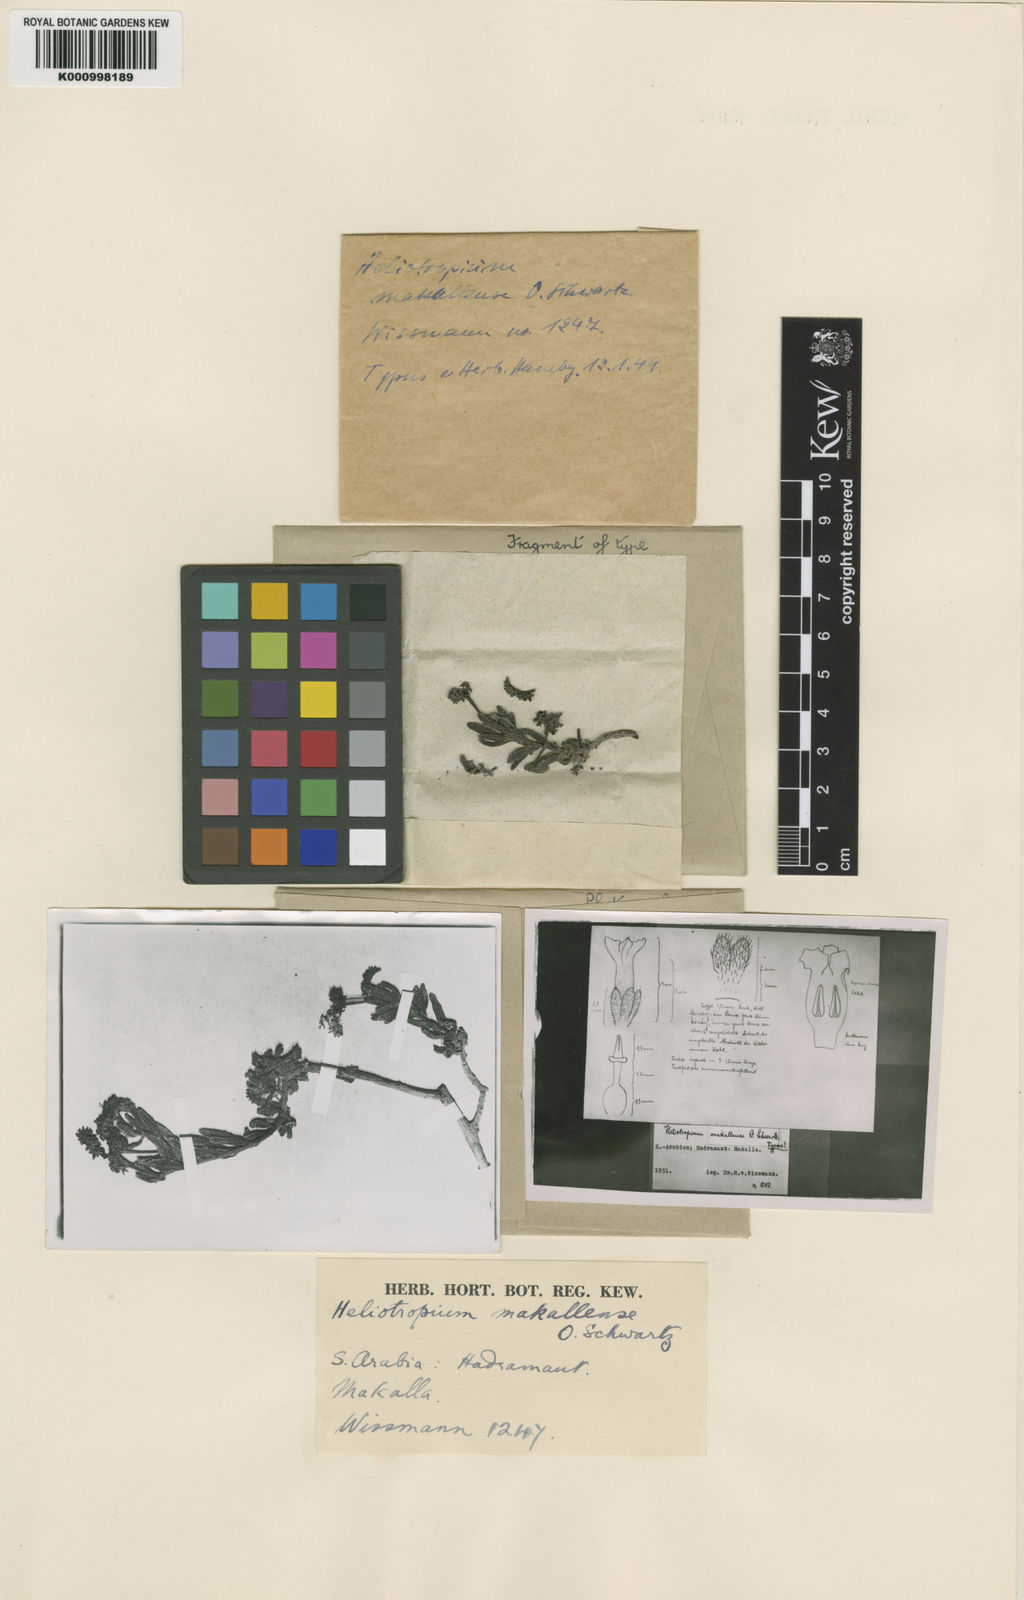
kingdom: Plantae
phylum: Tracheophyta
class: Magnoliopsida
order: Boraginales
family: Heliotropiaceae
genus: Heliotropium
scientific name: Heliotropium bacciferum
